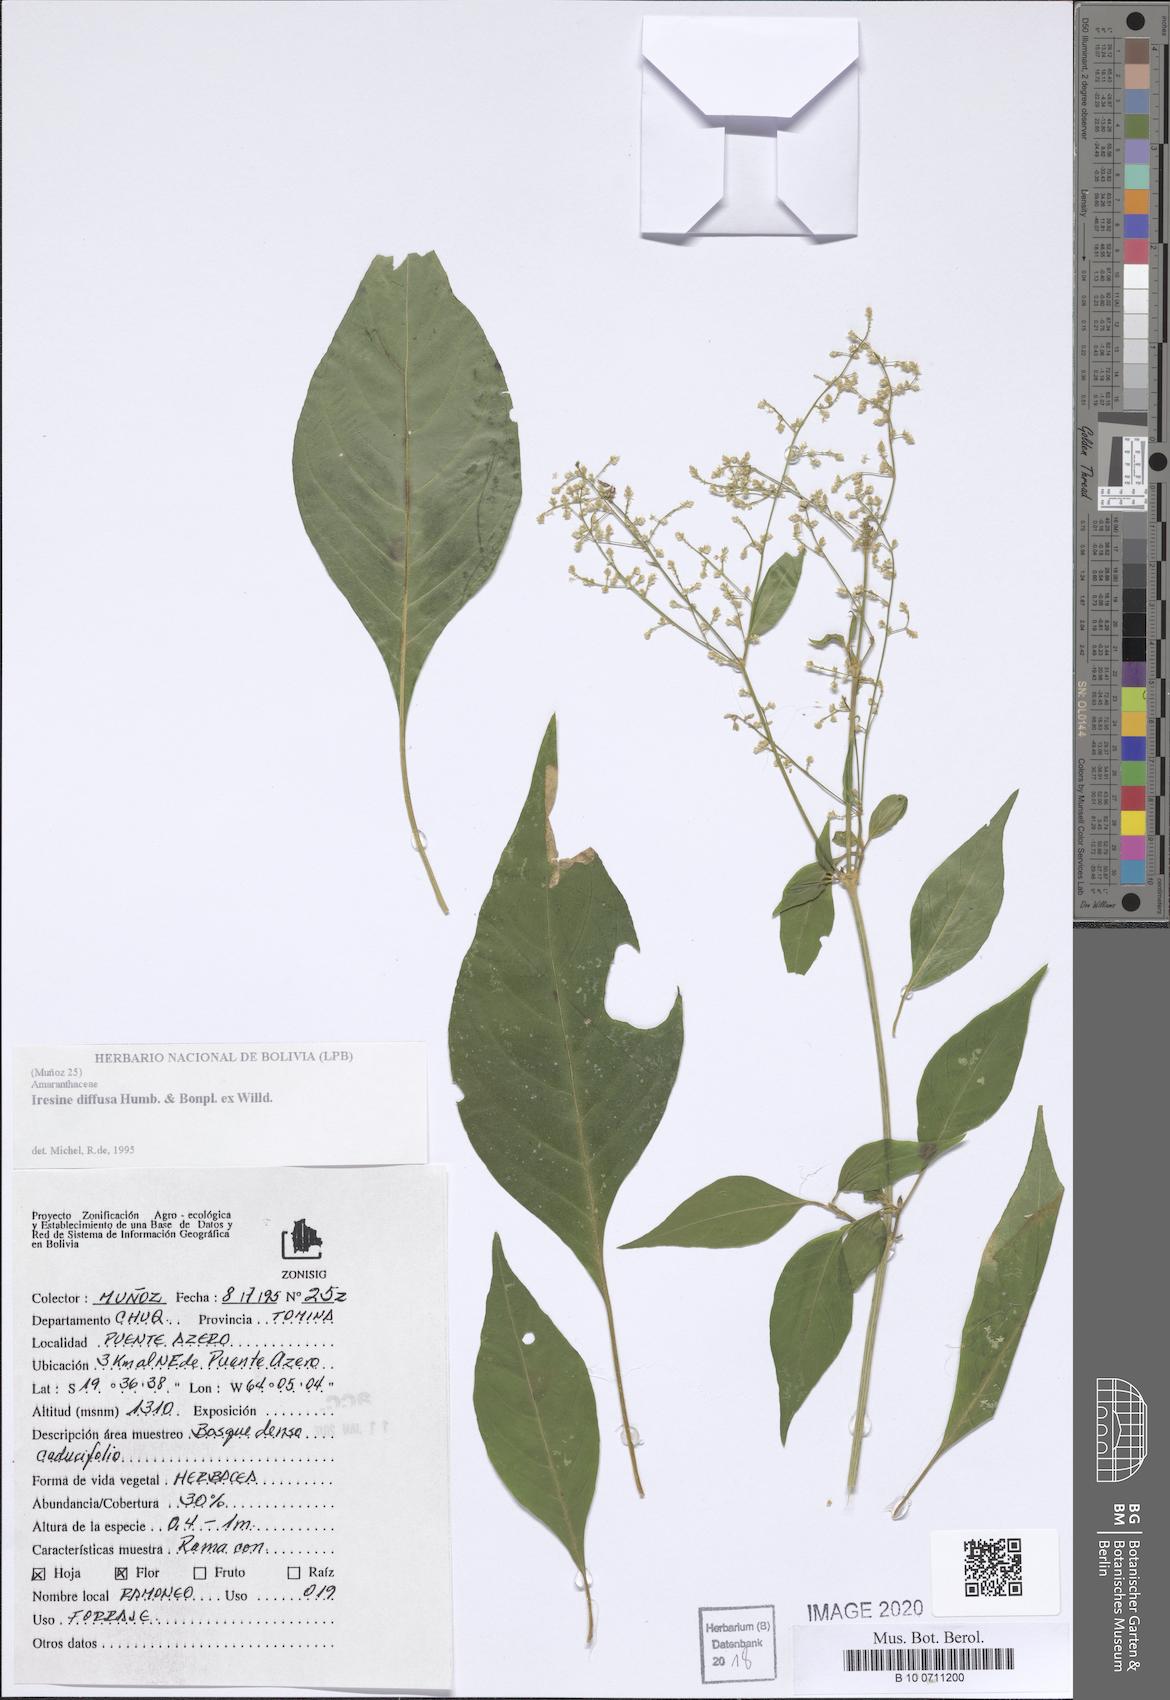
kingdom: Plantae
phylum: Tracheophyta
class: Magnoliopsida
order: Caryophyllales
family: Amaranthaceae
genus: Iresine
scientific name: Iresine diffusa
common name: Juba's-bush
